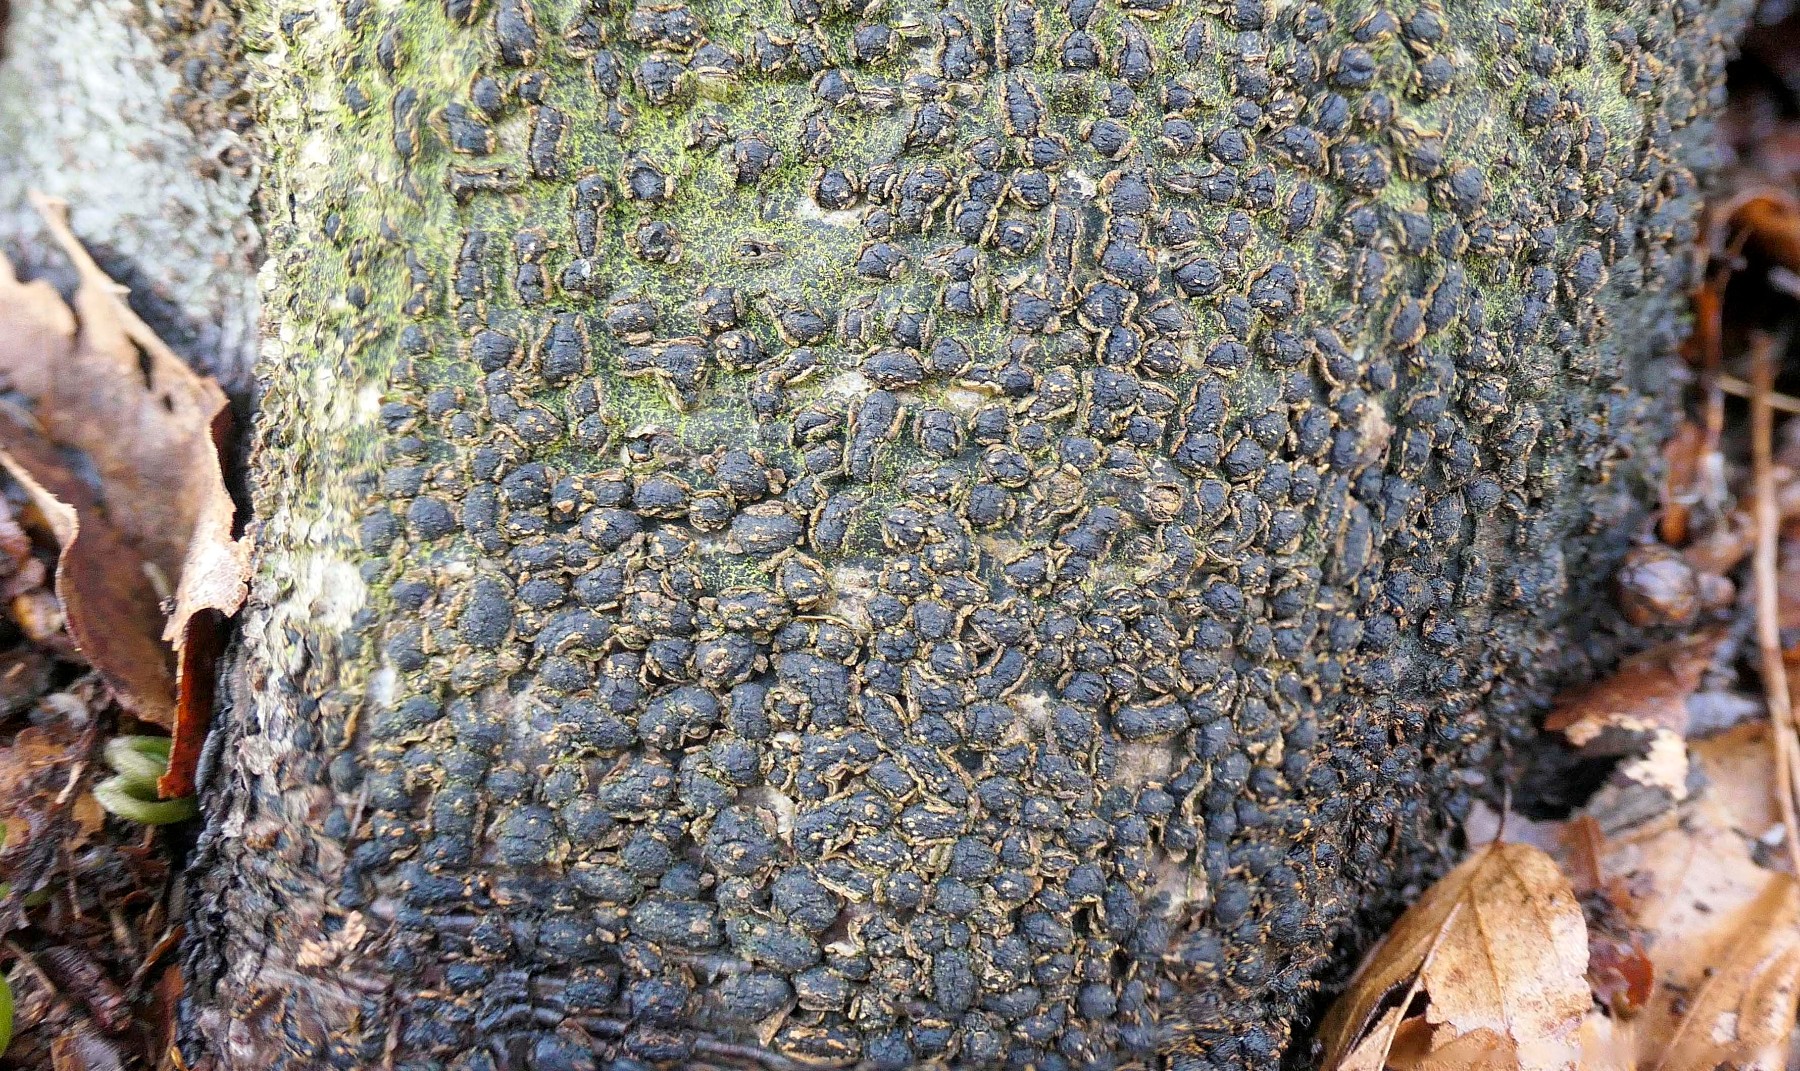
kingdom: Fungi
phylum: Ascomycota
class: Sordariomycetes
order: Xylariales
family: Melogrammataceae
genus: Melogramma
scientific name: Melogramma spiniferum
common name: bøgefod-kulhals
